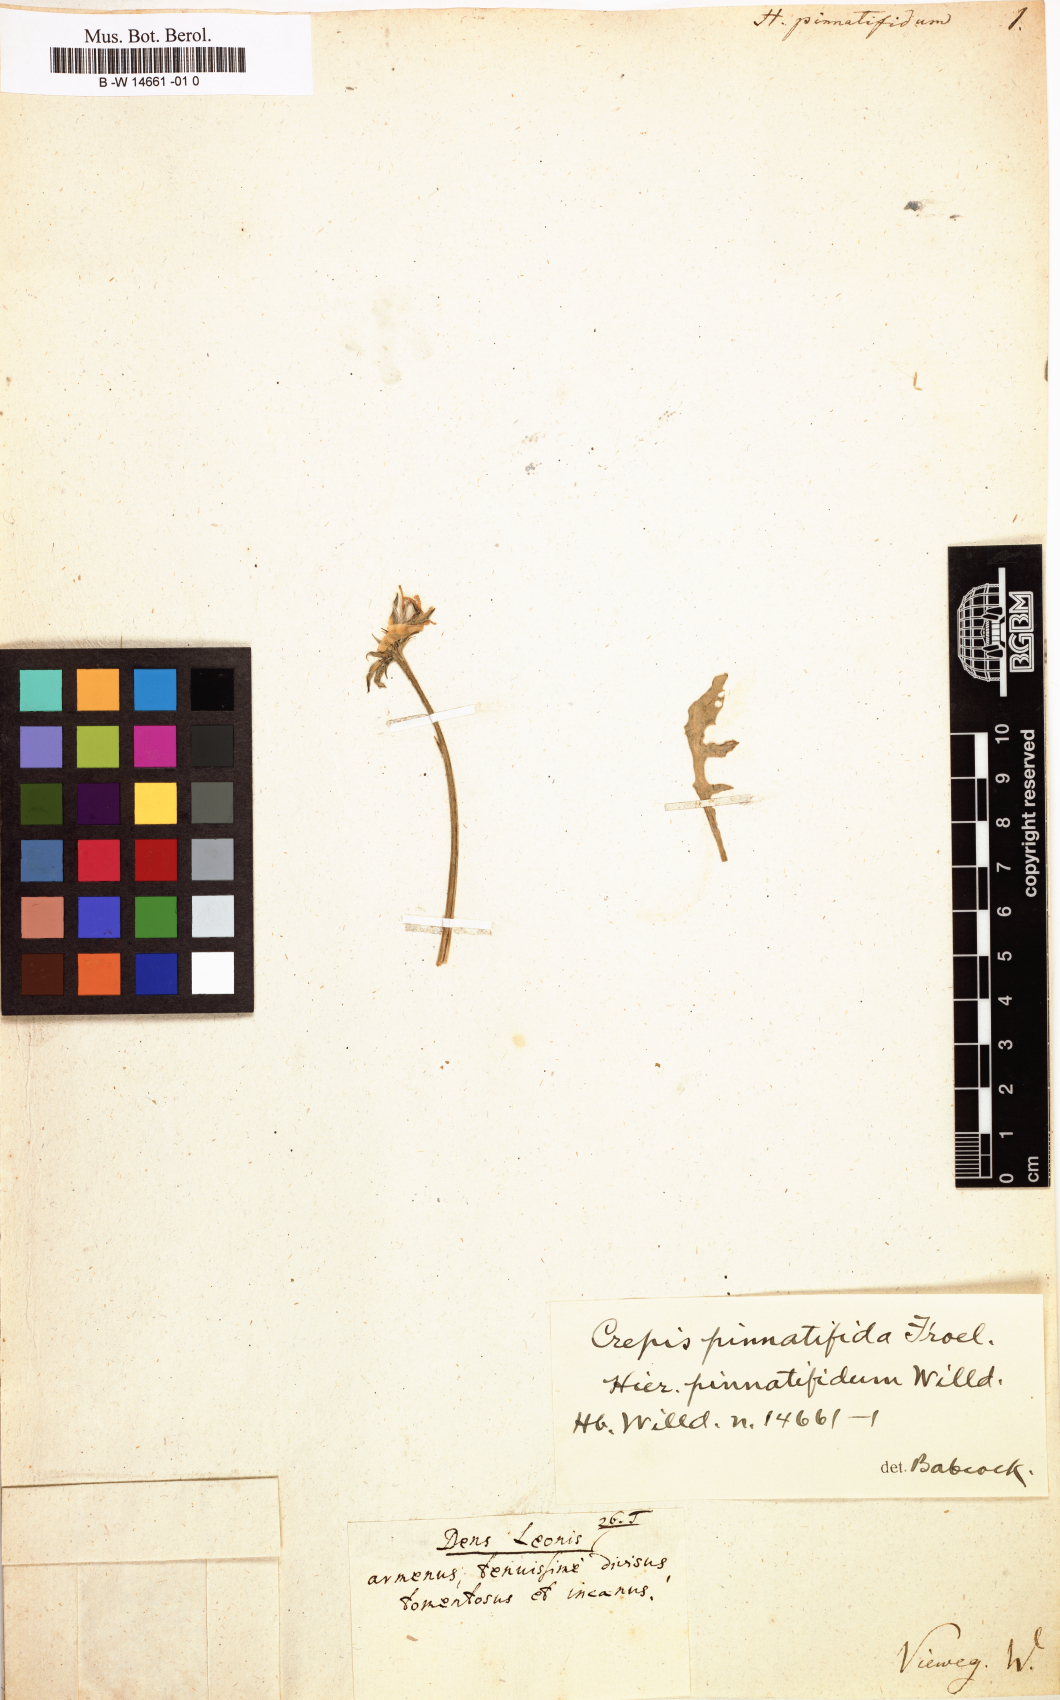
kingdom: Plantae
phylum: Tracheophyta
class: Magnoliopsida
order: Asterales
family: Asteraceae
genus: Crepis
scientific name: Crepis willdenowii
